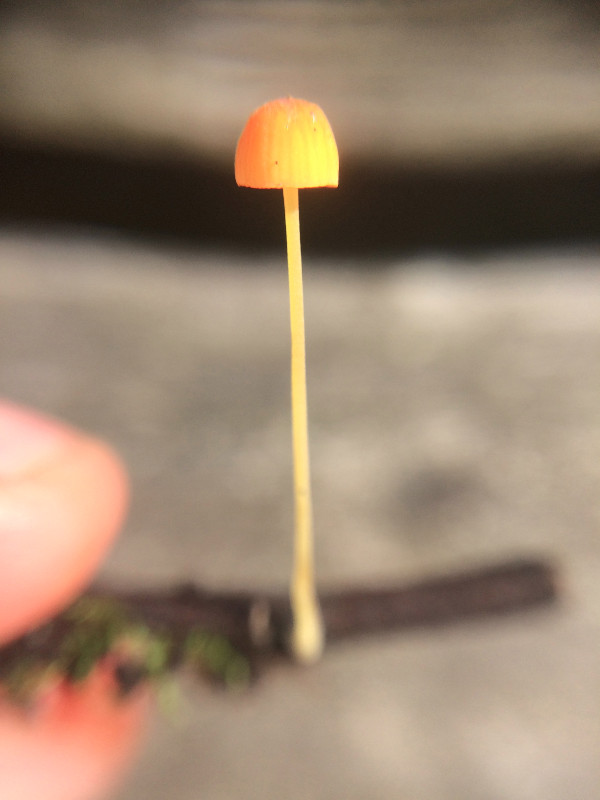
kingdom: Fungi
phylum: Basidiomycota
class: Agaricomycetes
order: Agaricales
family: Mycenaceae
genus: Mycena
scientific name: Mycena acicula
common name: orange huesvamp
